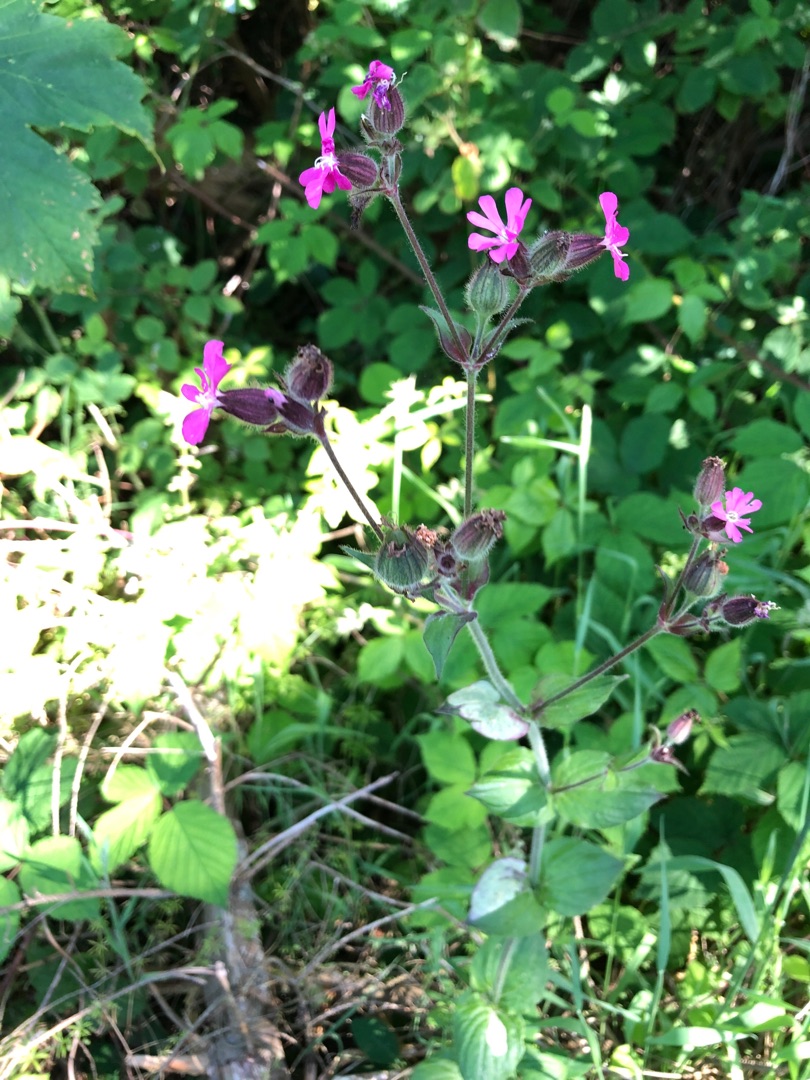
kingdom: Plantae
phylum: Tracheophyta
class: Magnoliopsida
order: Caryophyllales
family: Caryophyllaceae
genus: Silene
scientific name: Silene dioica
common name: Dagpragtstjerne
